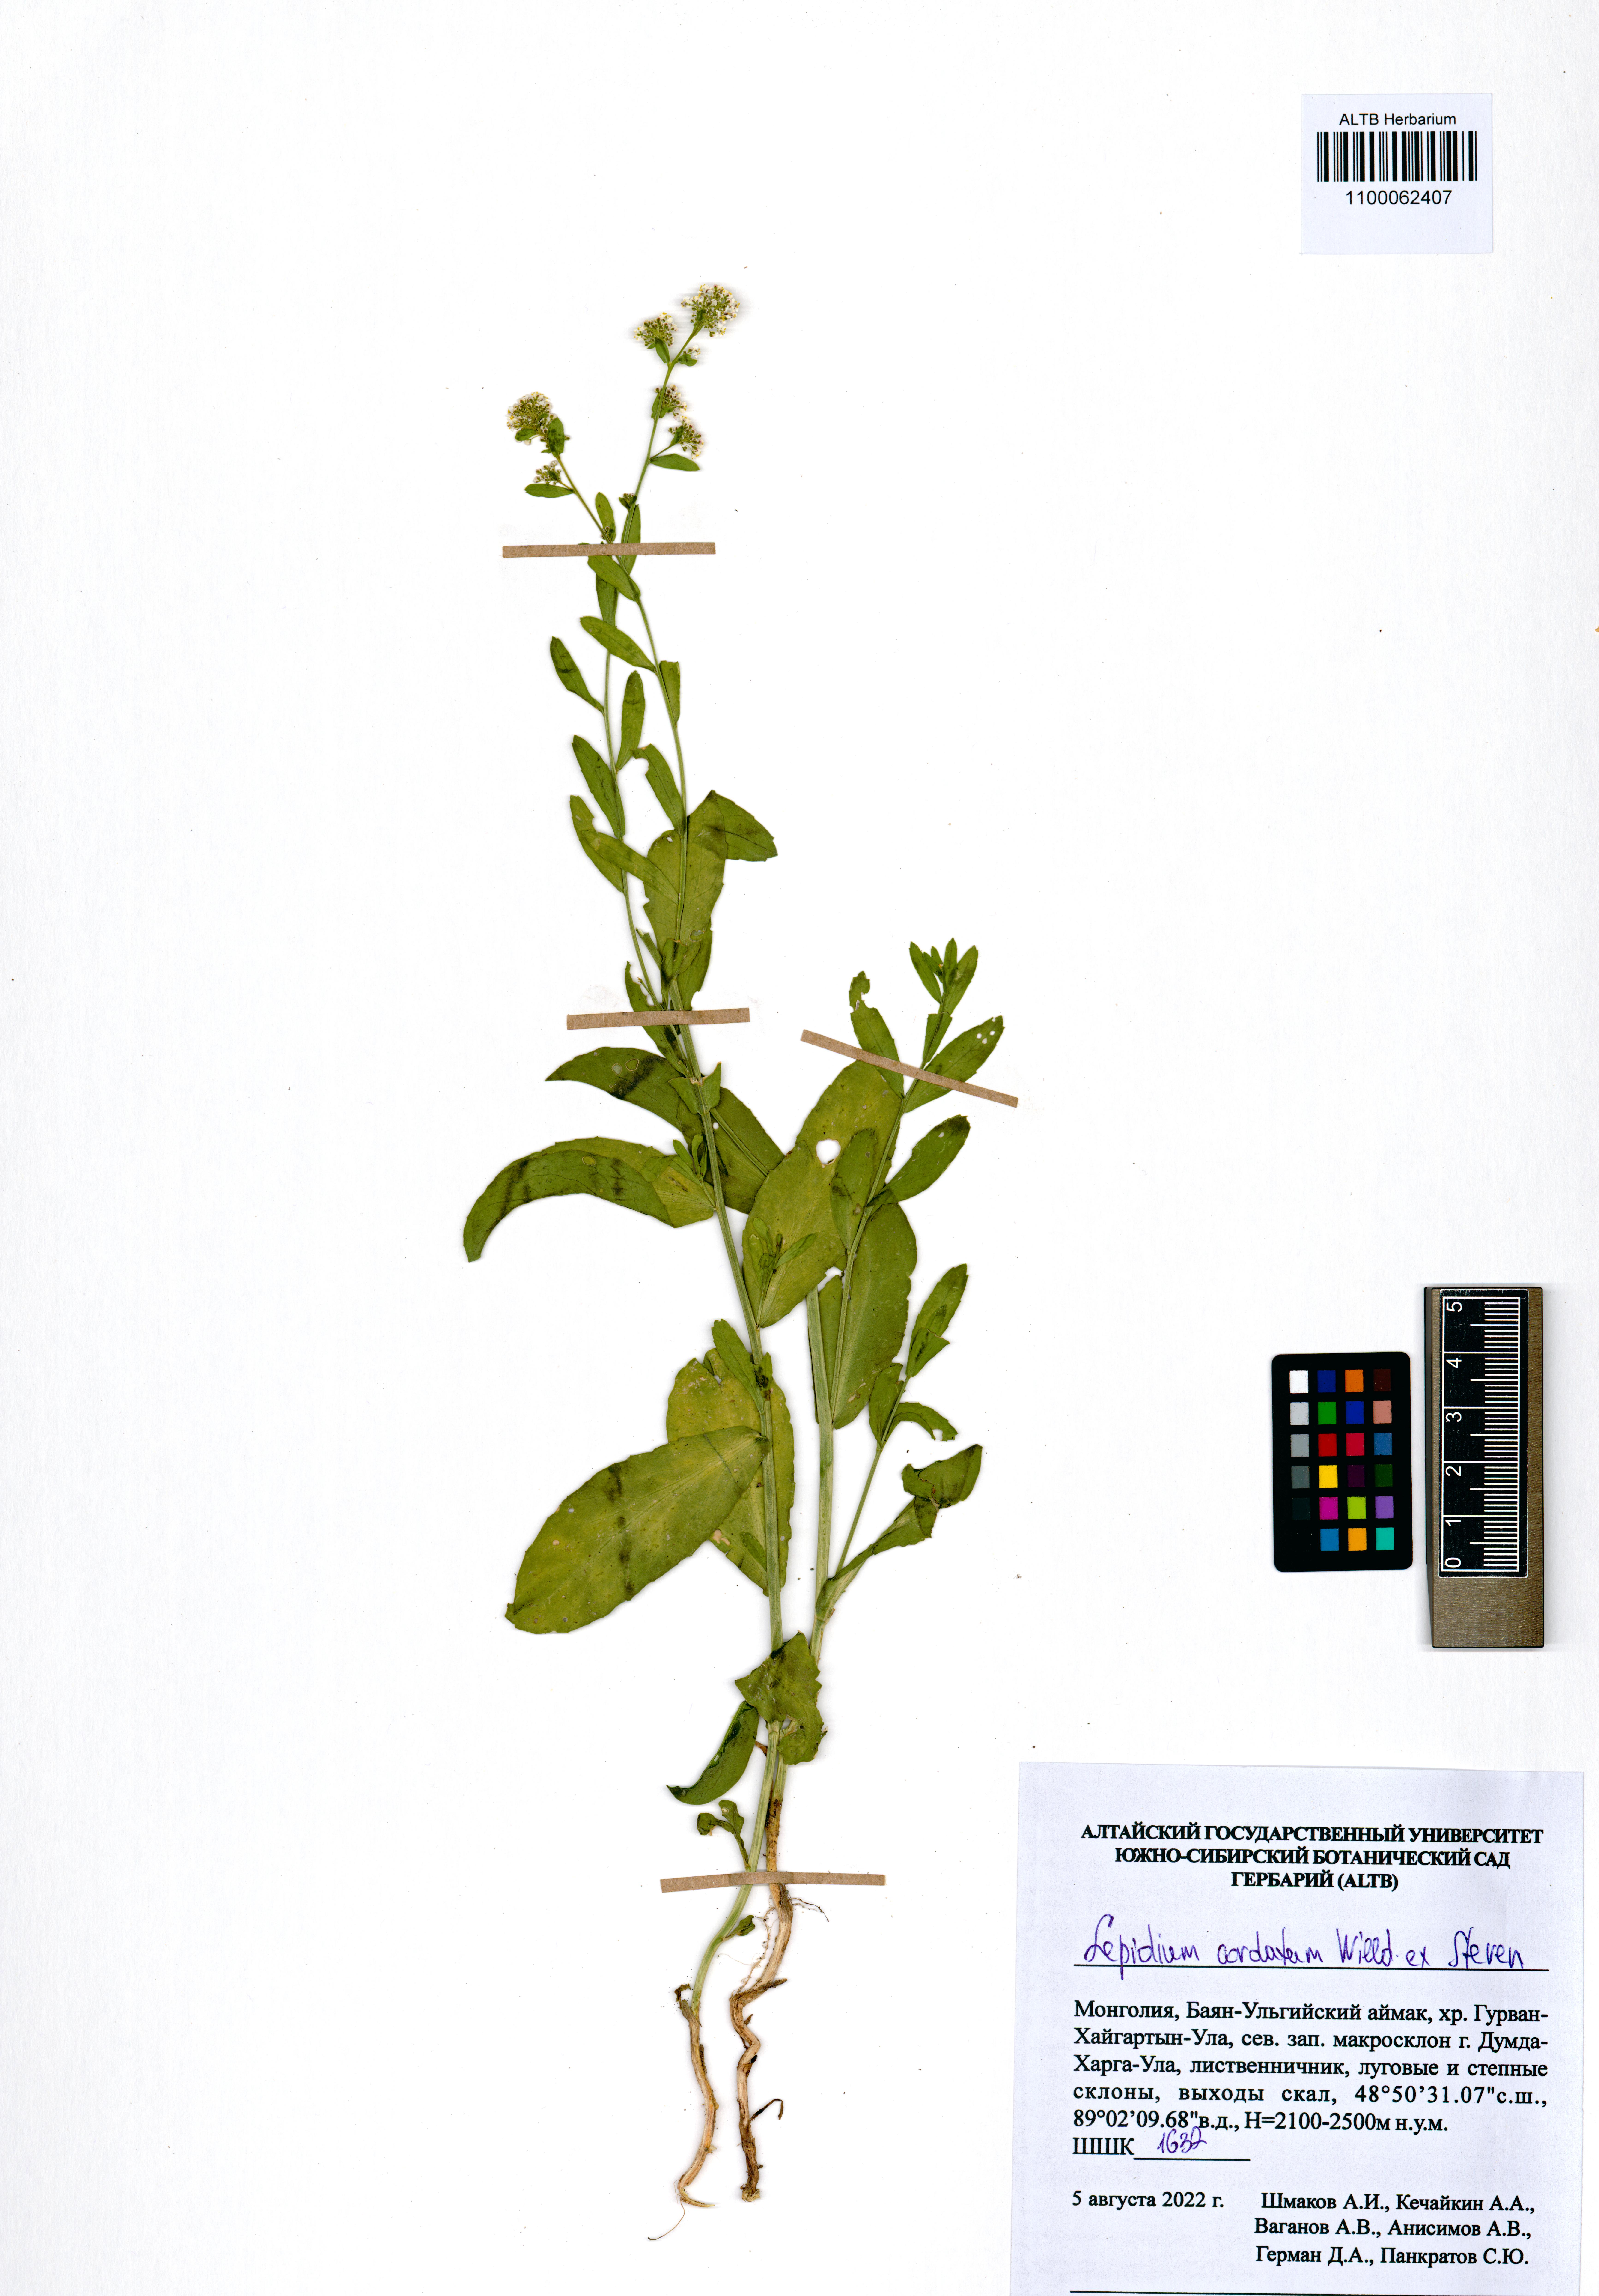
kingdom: Plantae
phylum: Tracheophyta
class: Magnoliopsida
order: Brassicales
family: Brassicaceae
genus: Lepidium
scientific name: Lepidium cordatum
